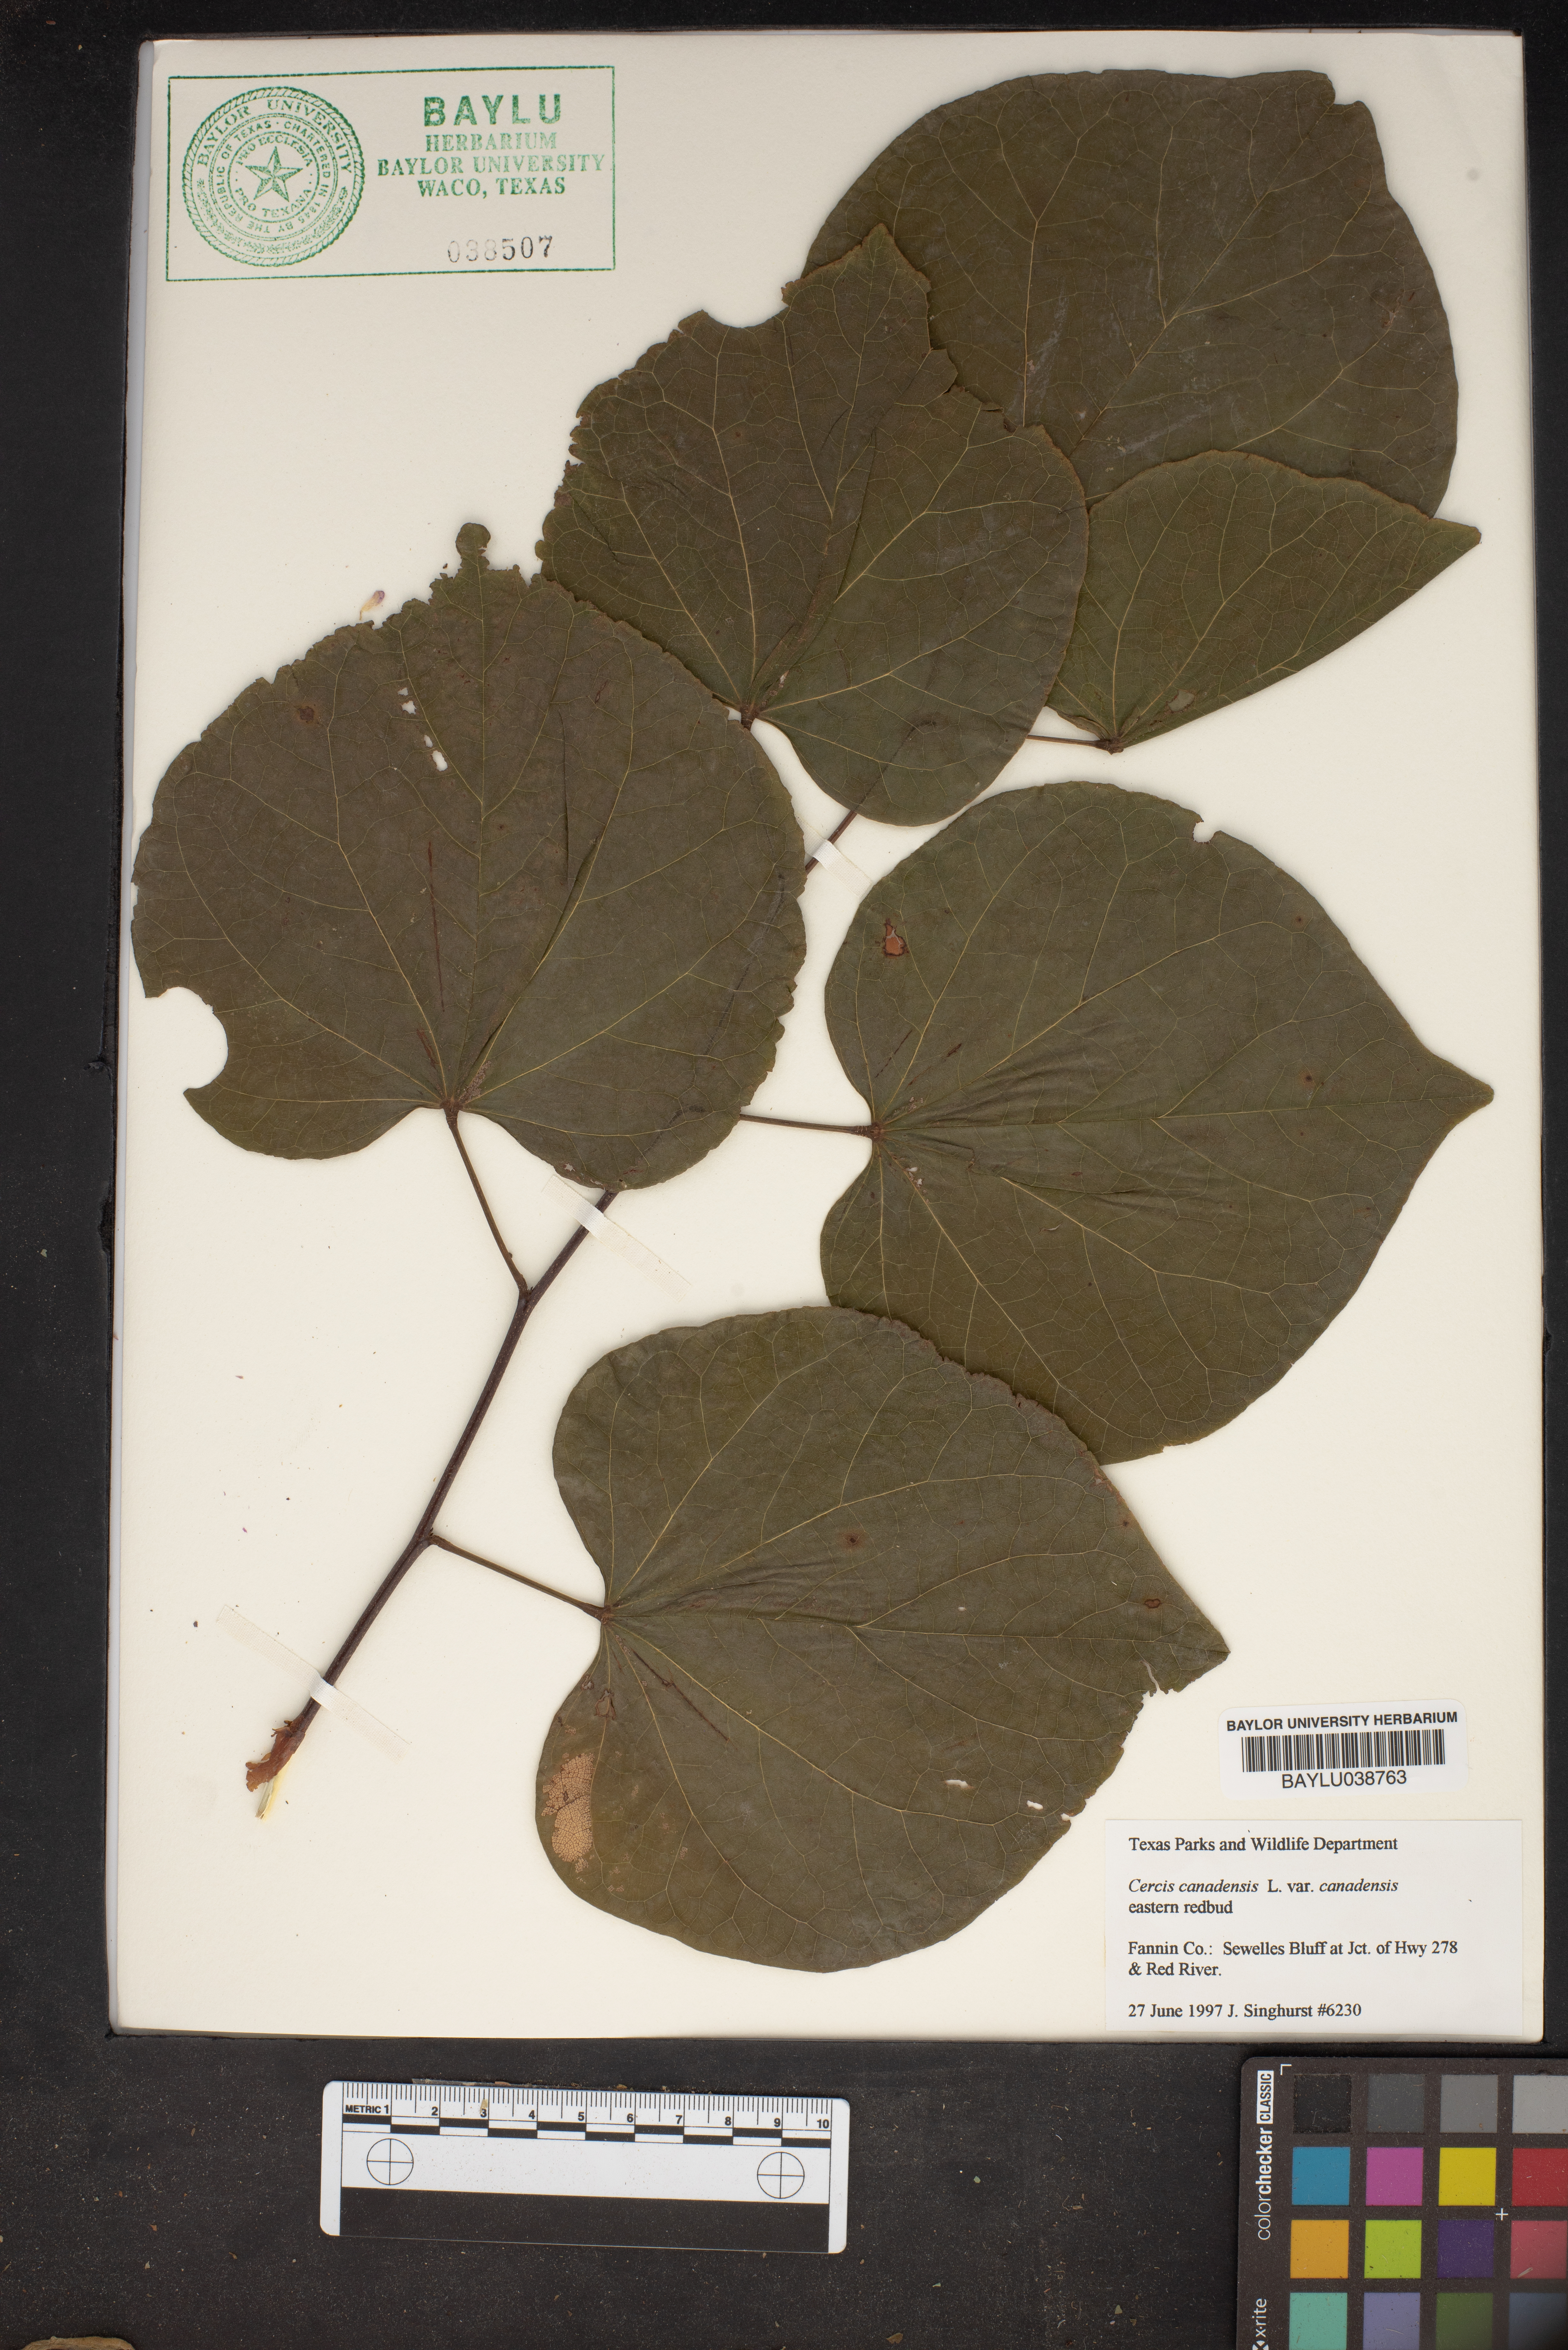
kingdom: Plantae
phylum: Tracheophyta
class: Magnoliopsida
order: Fabales
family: Fabaceae
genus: Cercis
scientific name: Cercis canadensis
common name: Eastern redbud
